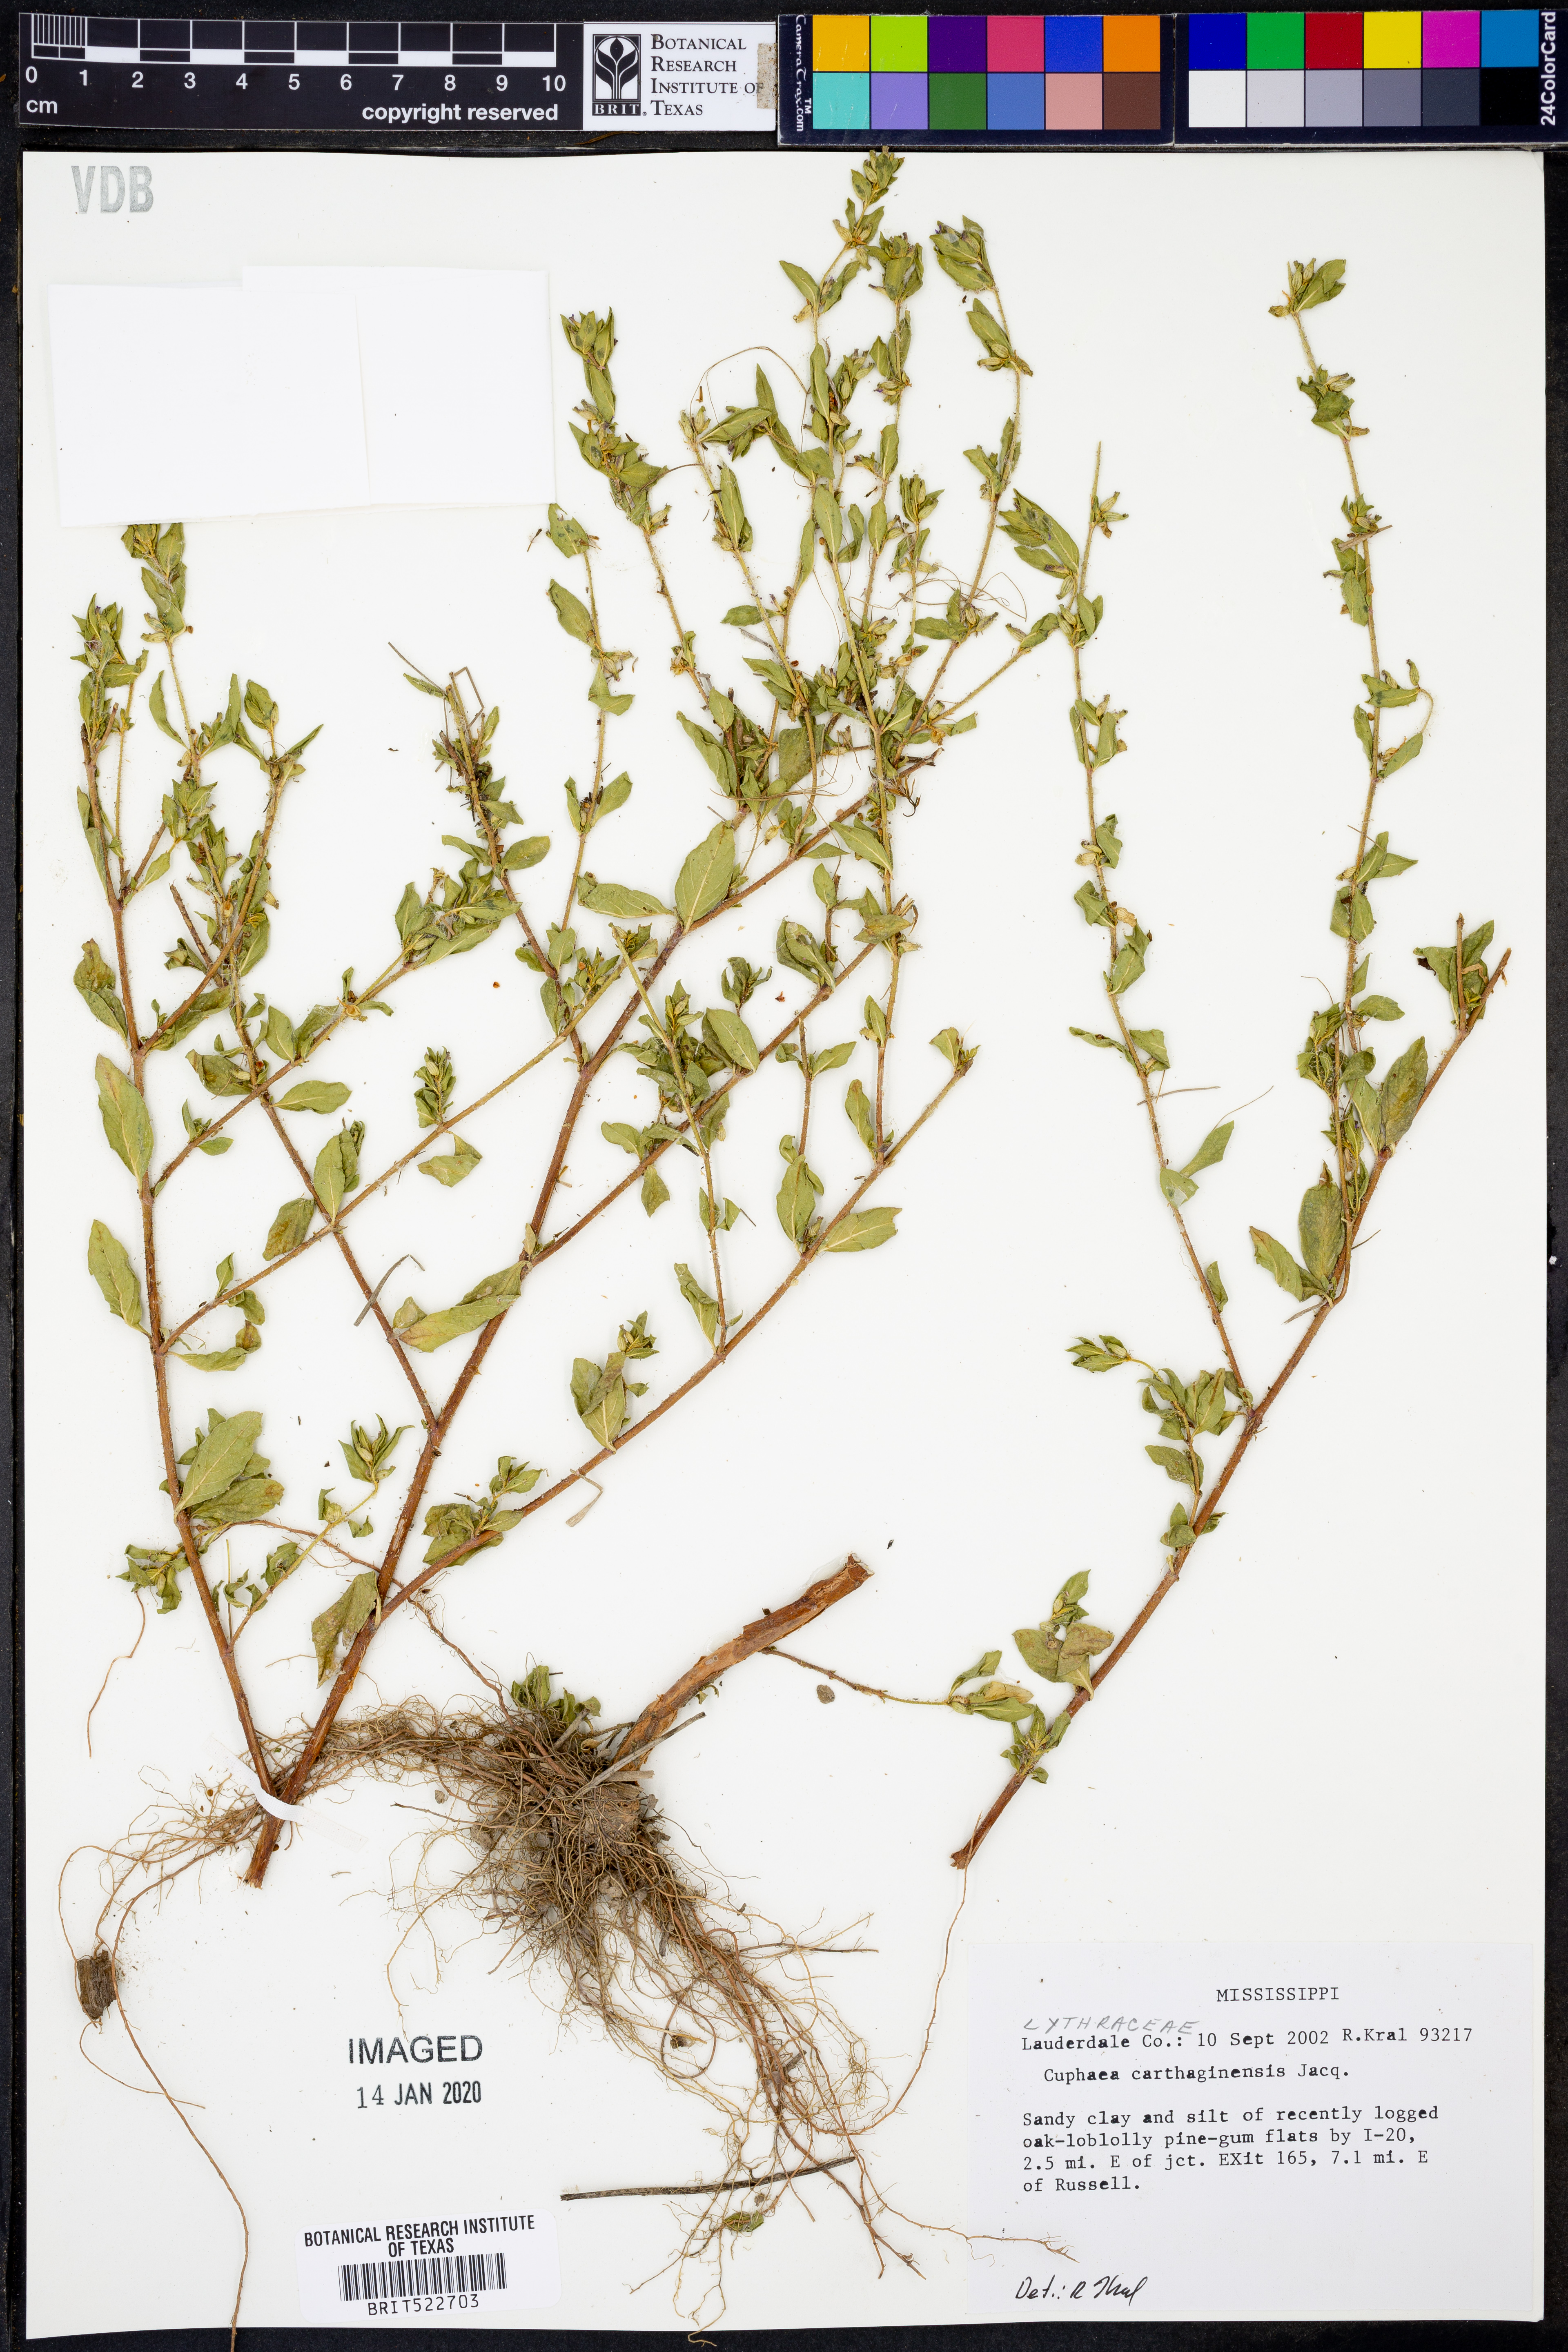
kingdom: Plantae
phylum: Tracheophyta
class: Magnoliopsida
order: Myrtales
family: Lythraceae
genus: Cuphea
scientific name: Cuphea carthagenensis
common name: Colombian waxweed
